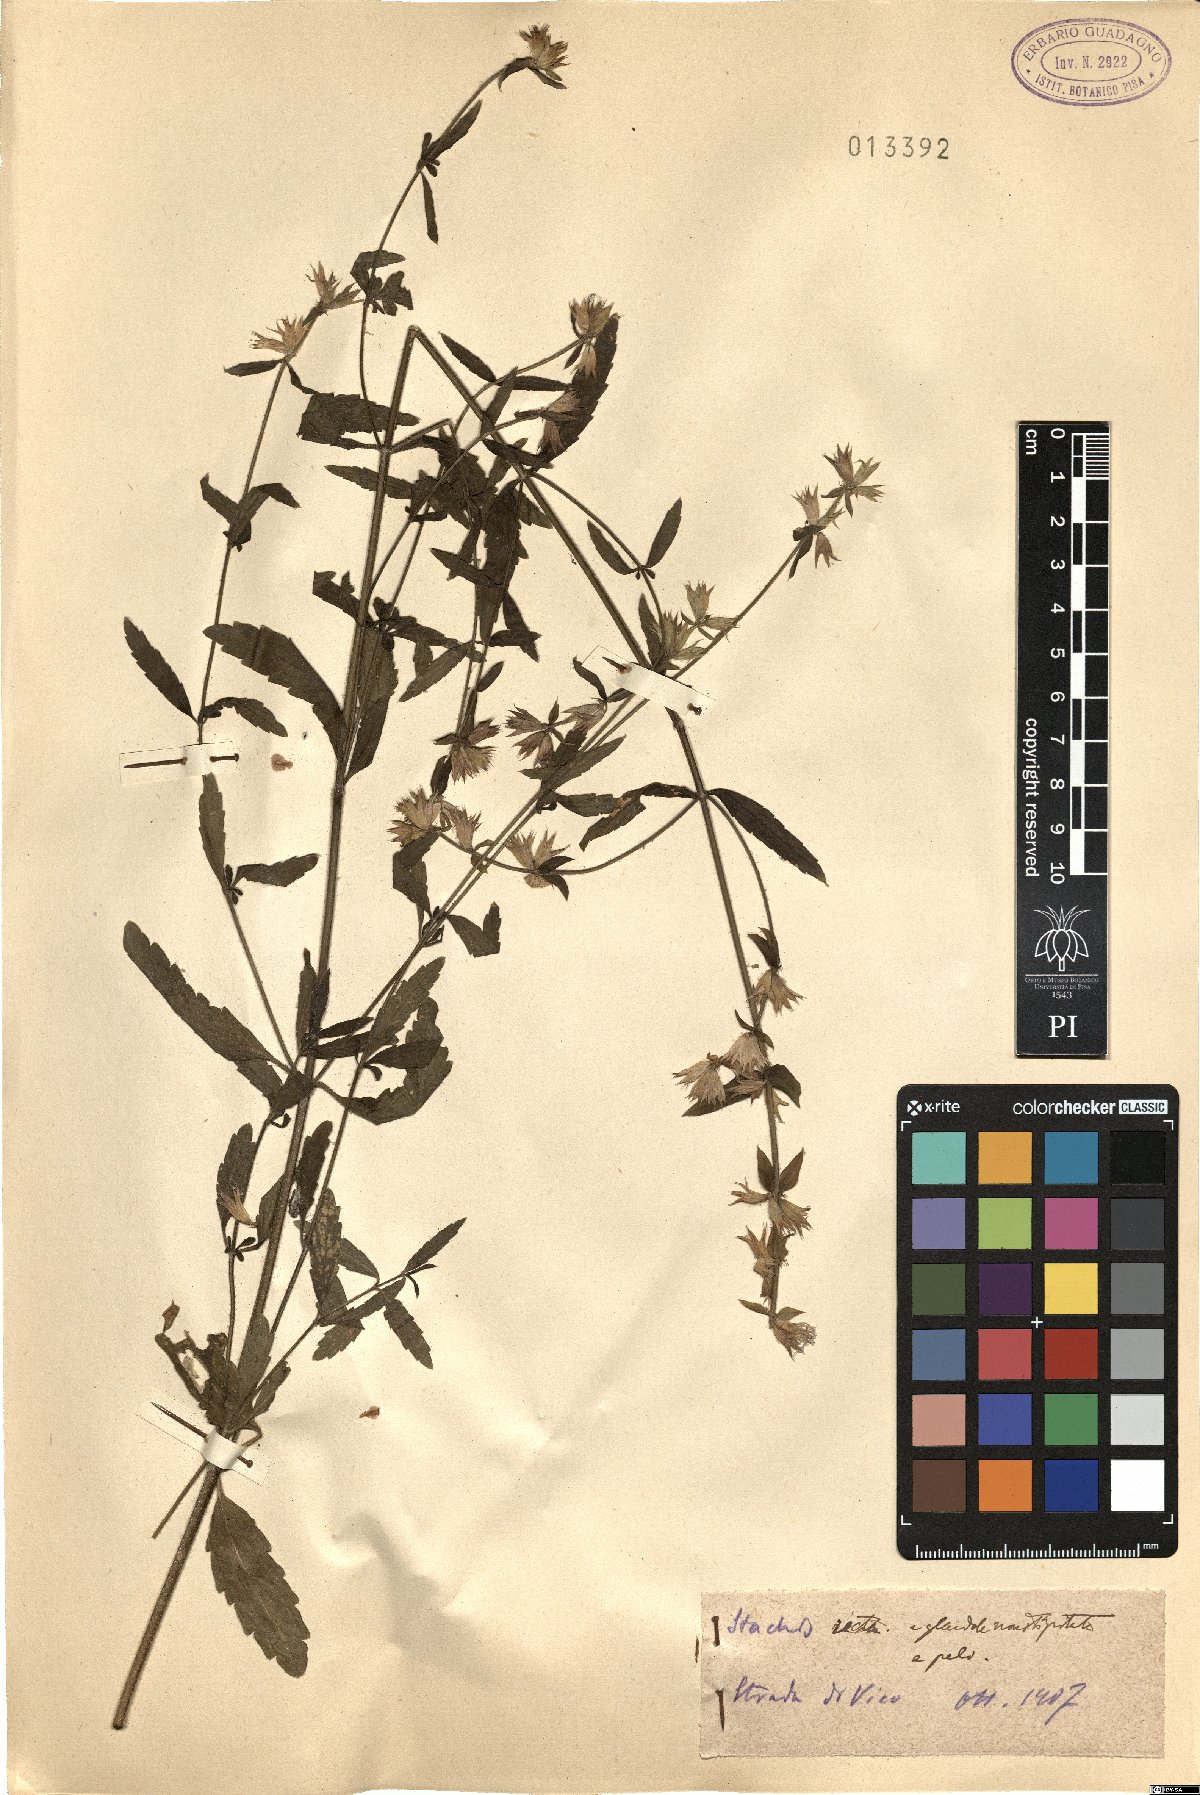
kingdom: Plantae
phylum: Tracheophyta
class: Magnoliopsida
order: Lamiales
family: Lamiaceae
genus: Stachys
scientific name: Stachys
